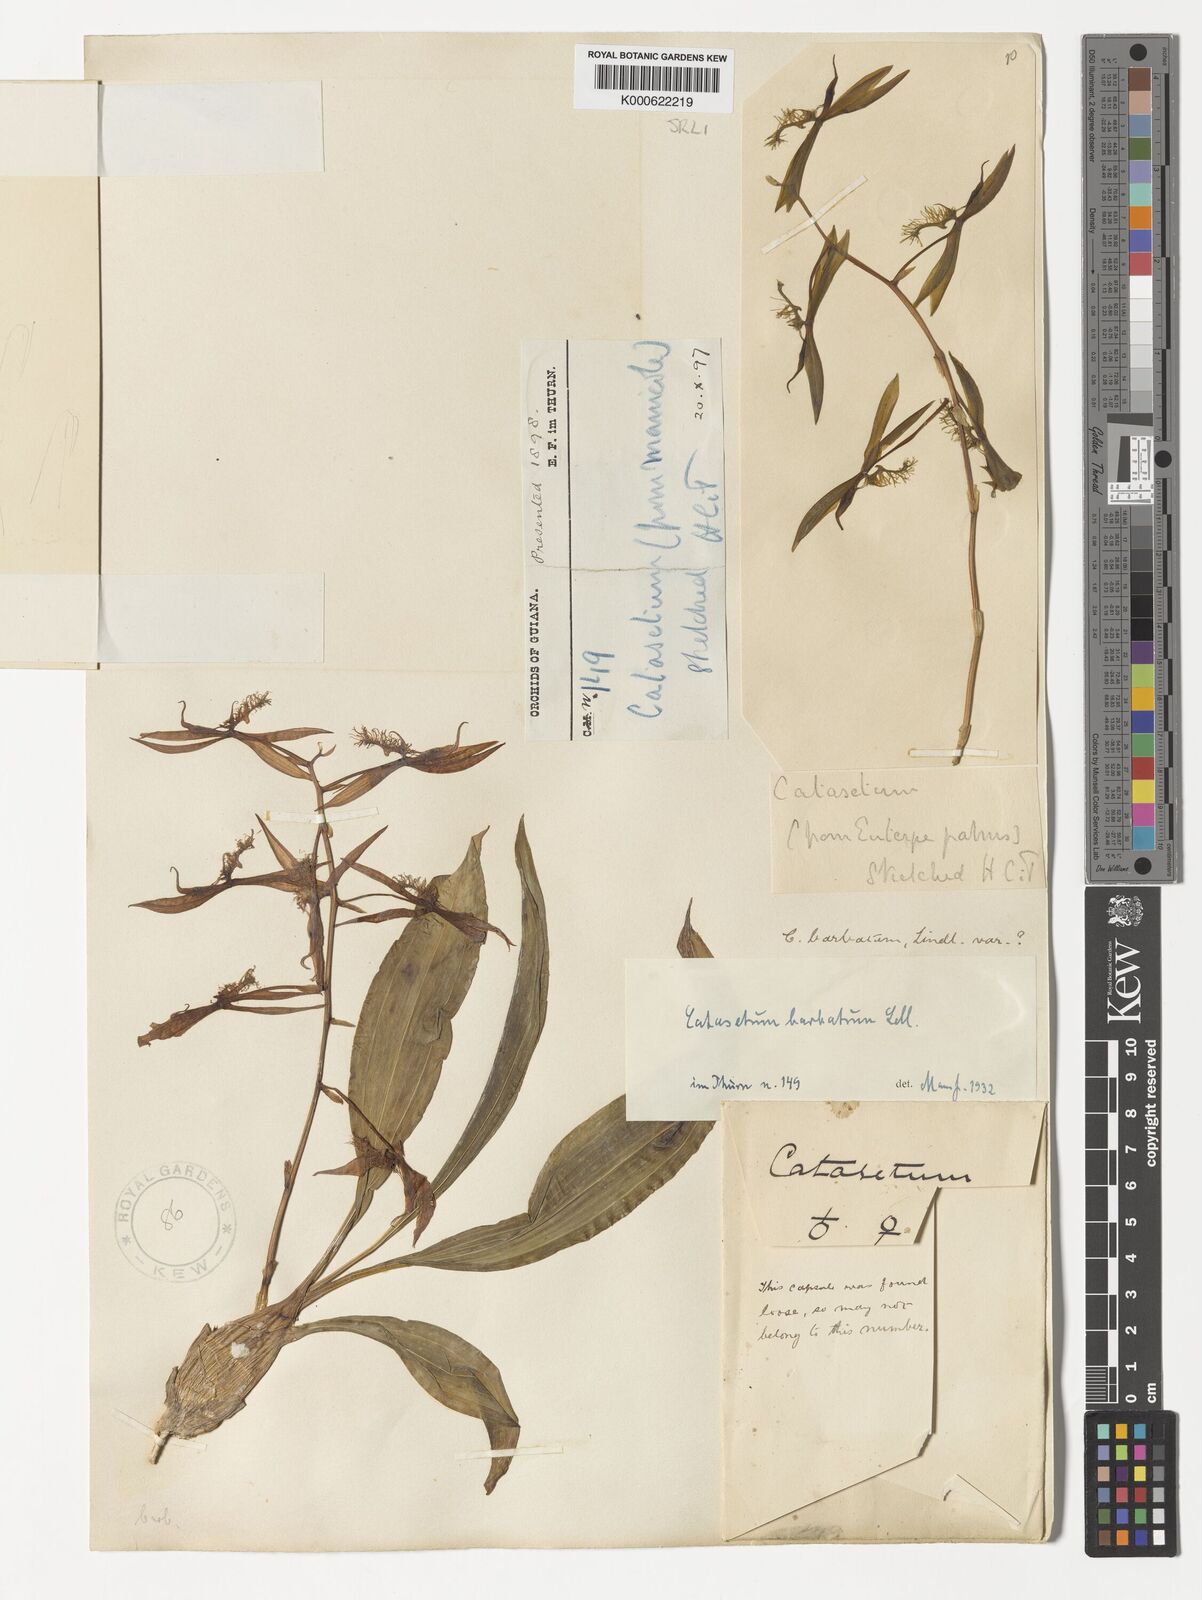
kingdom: Plantae
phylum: Tracheophyta
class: Liliopsida
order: Asparagales
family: Orchidaceae
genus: Catasetum
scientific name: Catasetum barbatum
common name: Bearded catasetum
